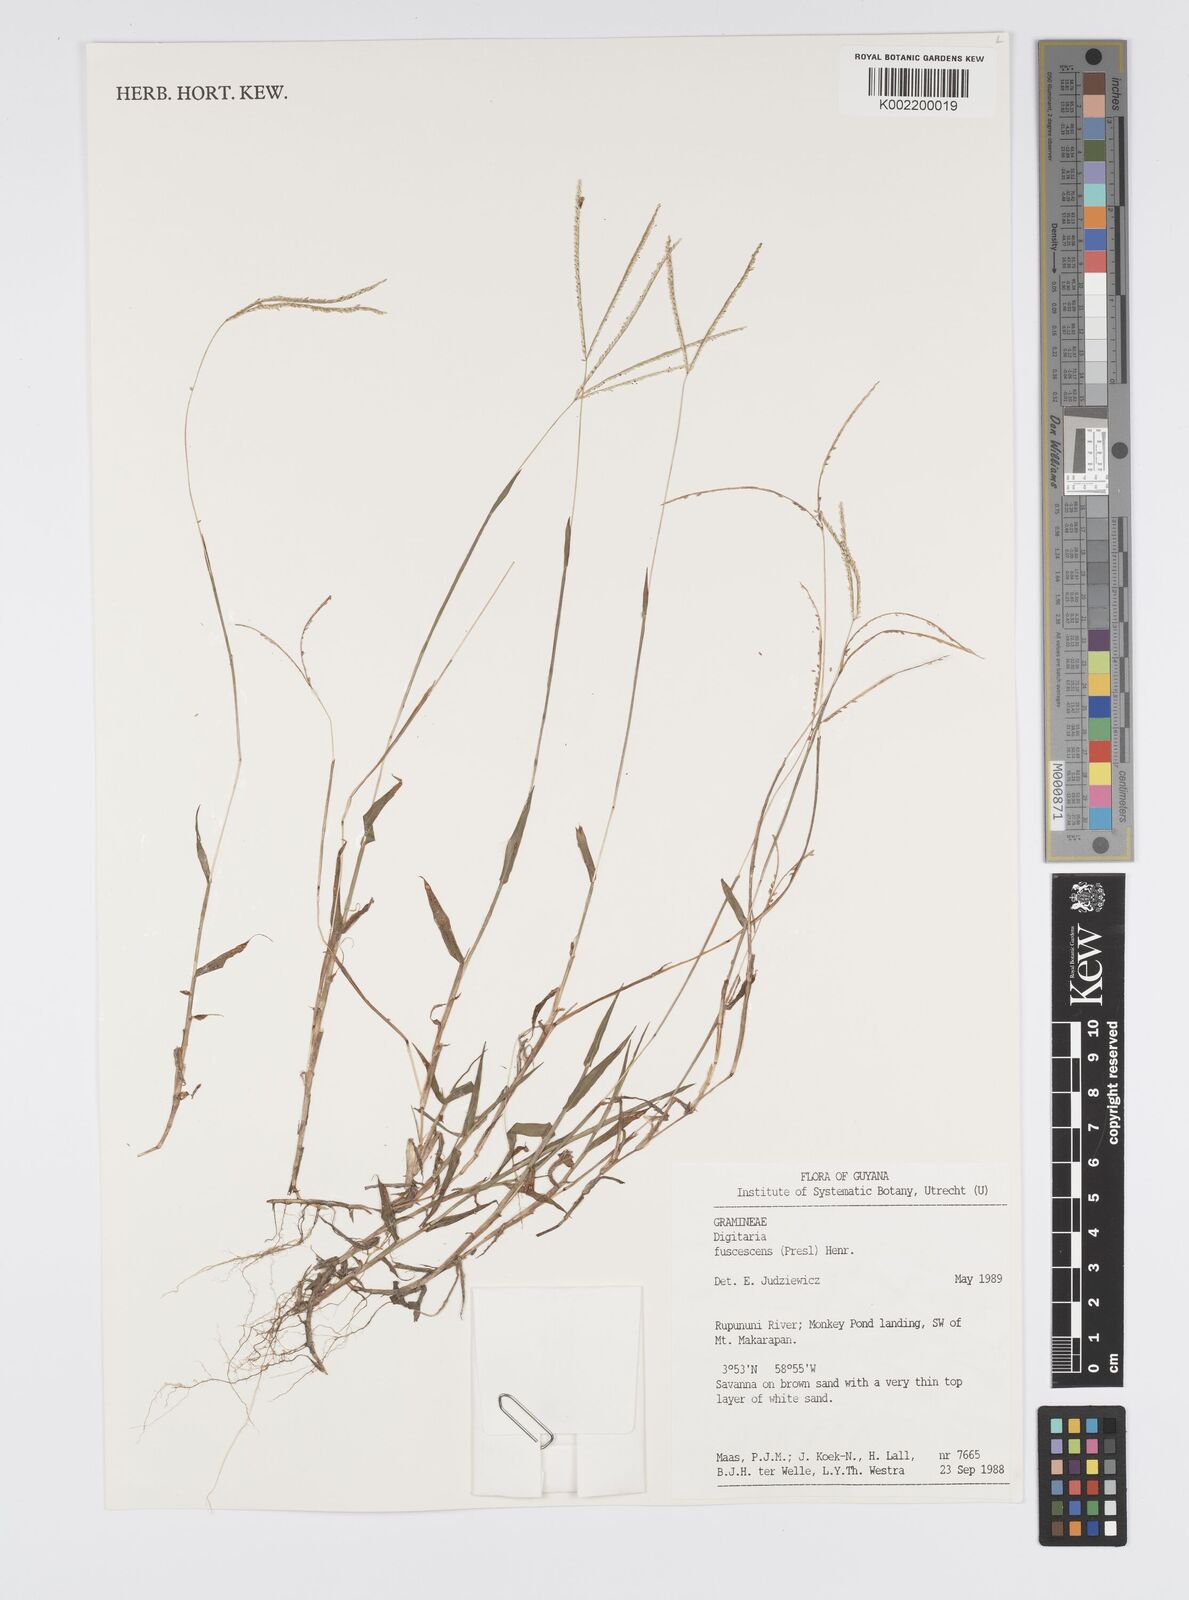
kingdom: Plantae
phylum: Tracheophyta
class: Liliopsida
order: Poales
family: Poaceae
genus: Digitaria
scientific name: Digitaria fuscescens
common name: Yellow crabgrass
